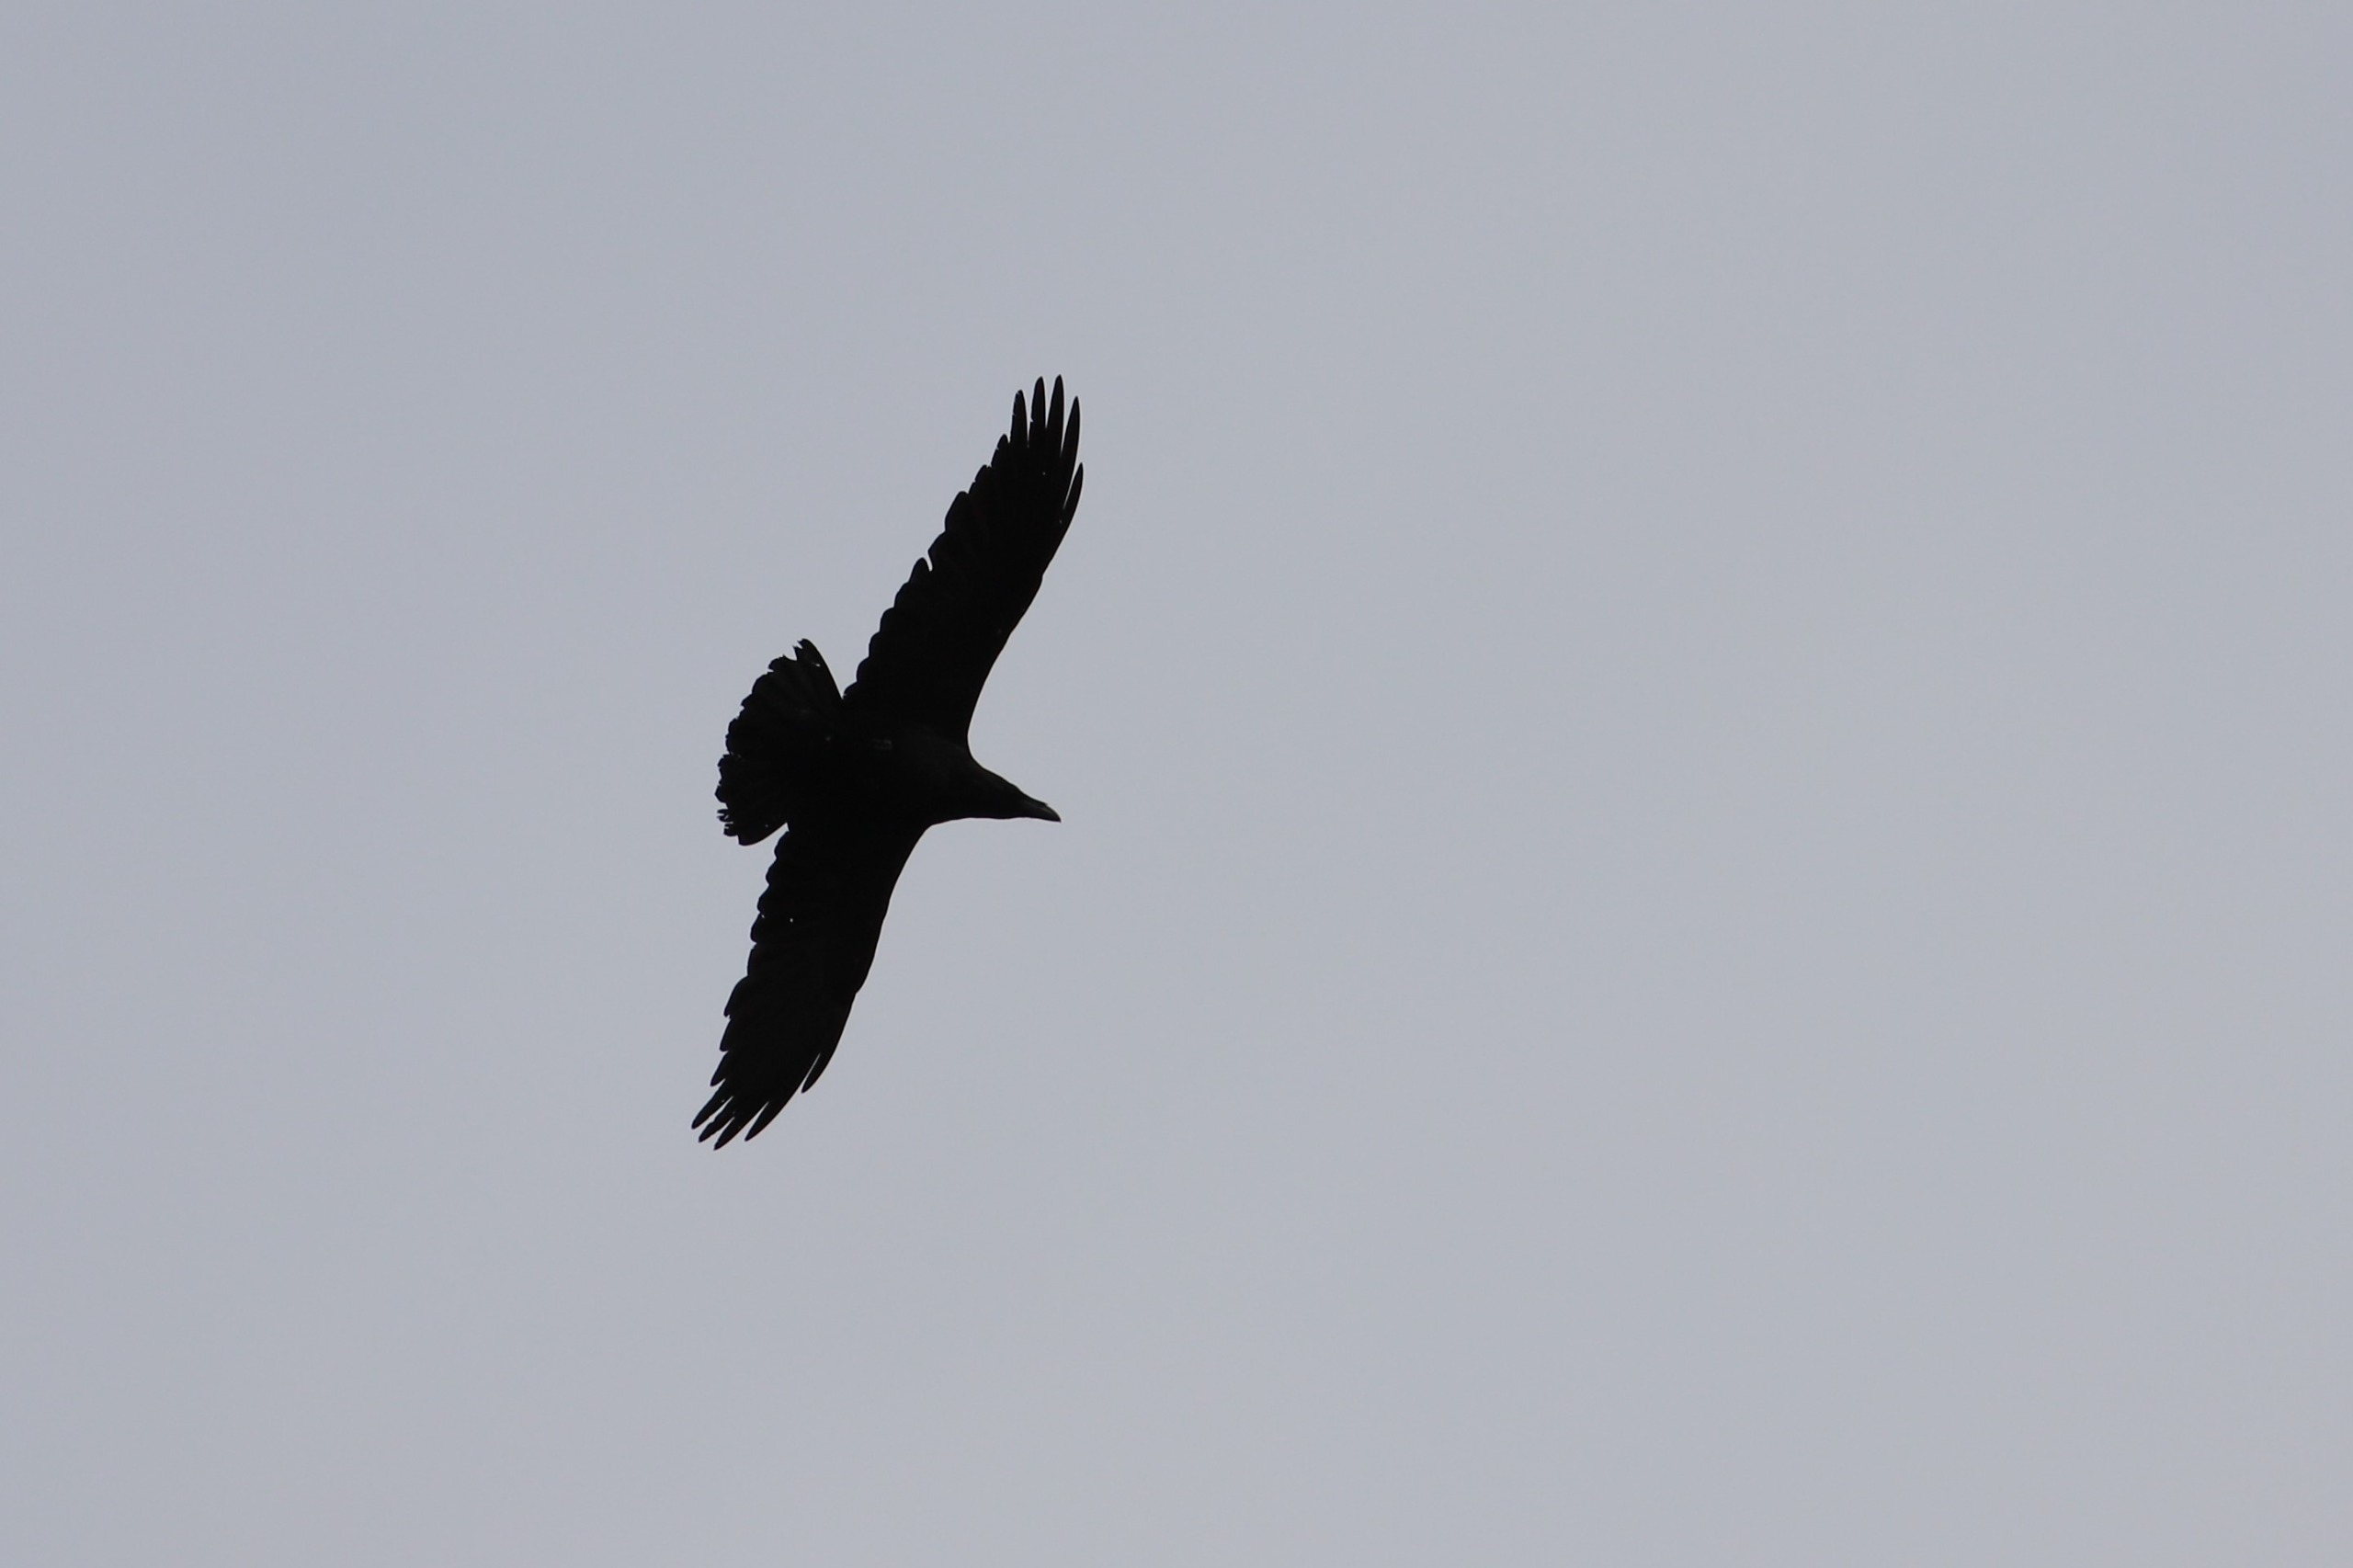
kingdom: Animalia
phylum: Chordata
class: Aves
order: Passeriformes
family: Corvidae
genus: Corvus
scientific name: Corvus corax
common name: Ravn
